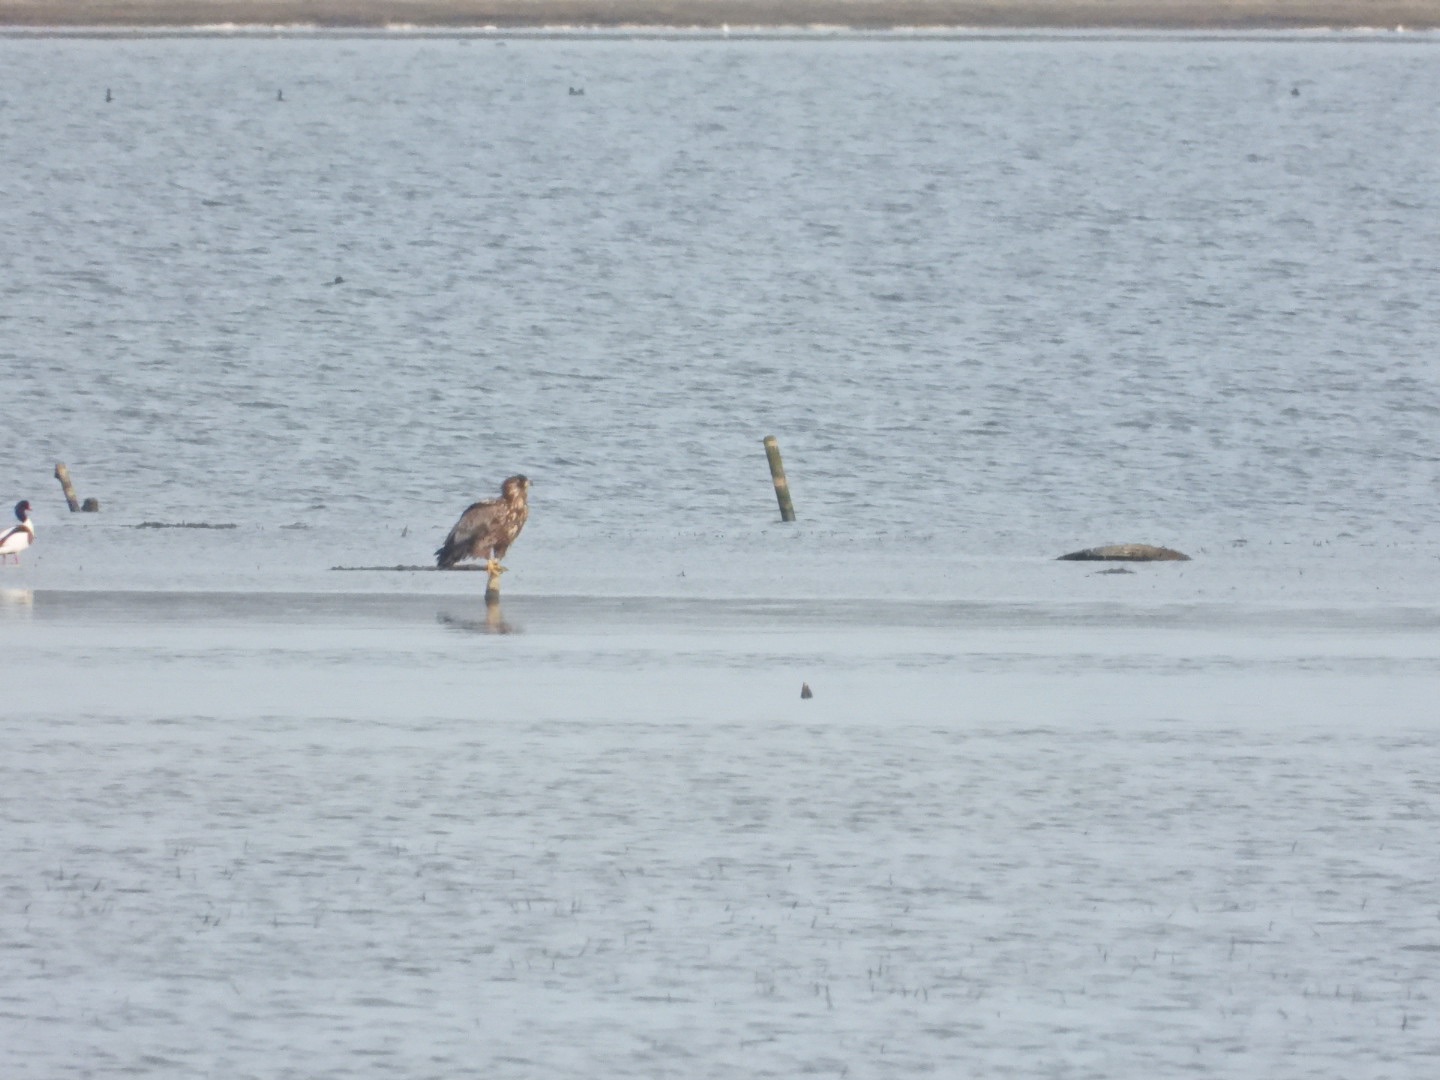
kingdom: Animalia
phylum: Chordata
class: Aves
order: Accipitriformes
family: Accipitridae
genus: Haliaeetus
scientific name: Haliaeetus albicilla
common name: Havørn
